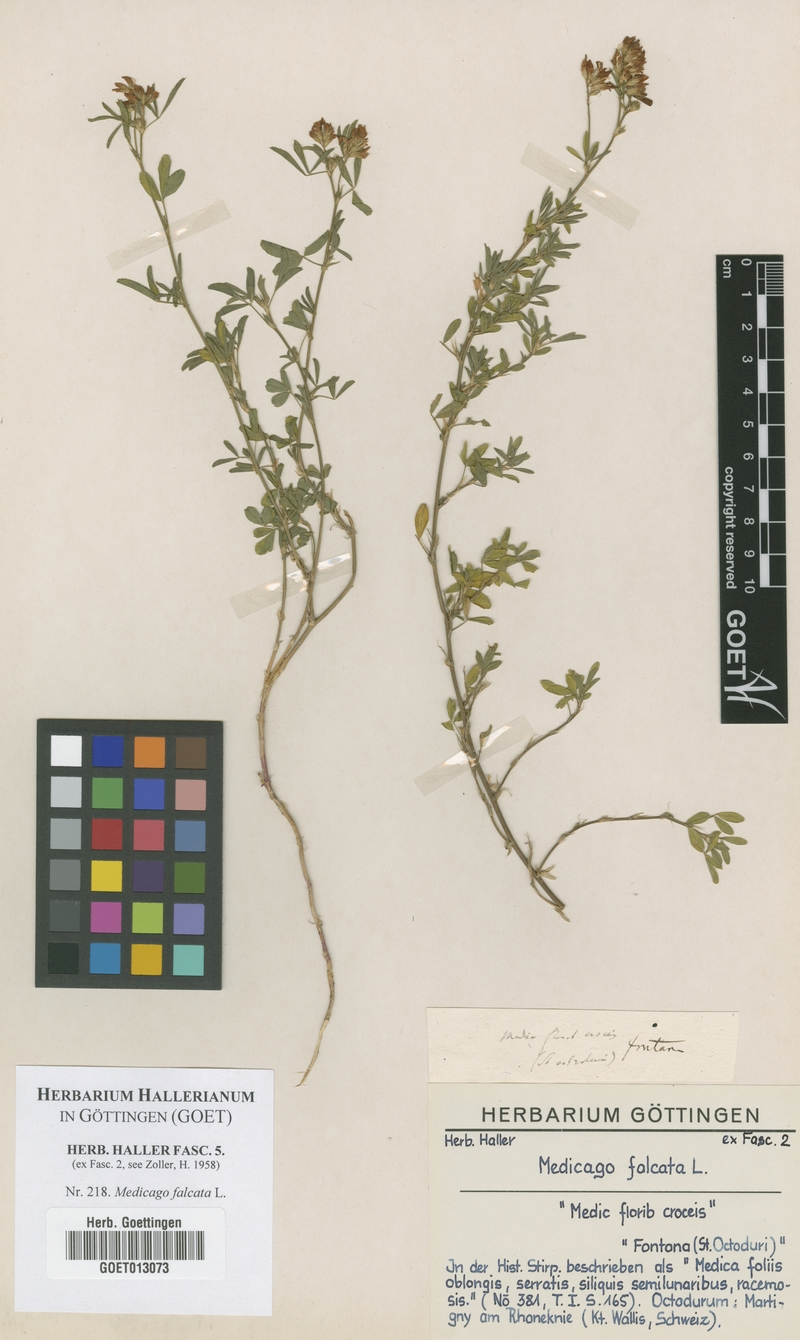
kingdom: Plantae
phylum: Tracheophyta
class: Magnoliopsida
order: Fabales
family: Fabaceae
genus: Medicago
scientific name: Medicago falcata
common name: Sickle medick
